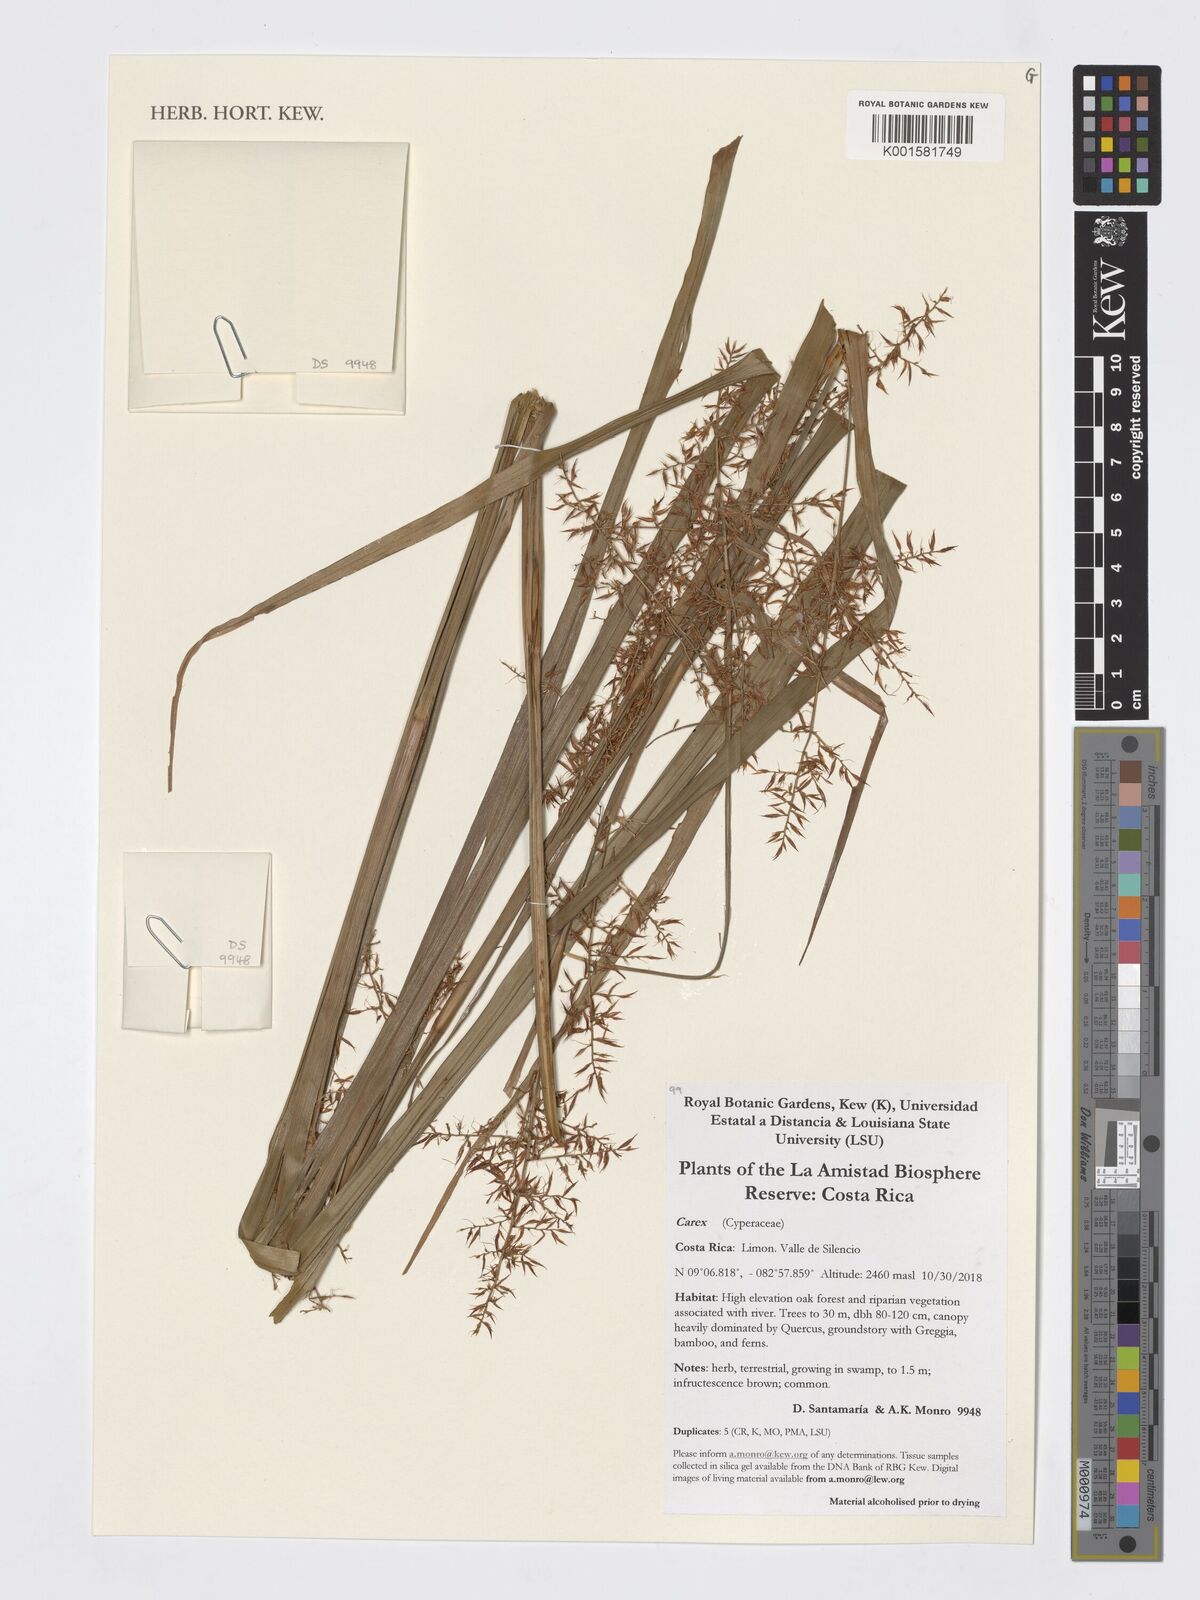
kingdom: Plantae
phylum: Tracheophyta
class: Liliopsida
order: Poales
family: Cyperaceae
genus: Carex
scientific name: Carex
